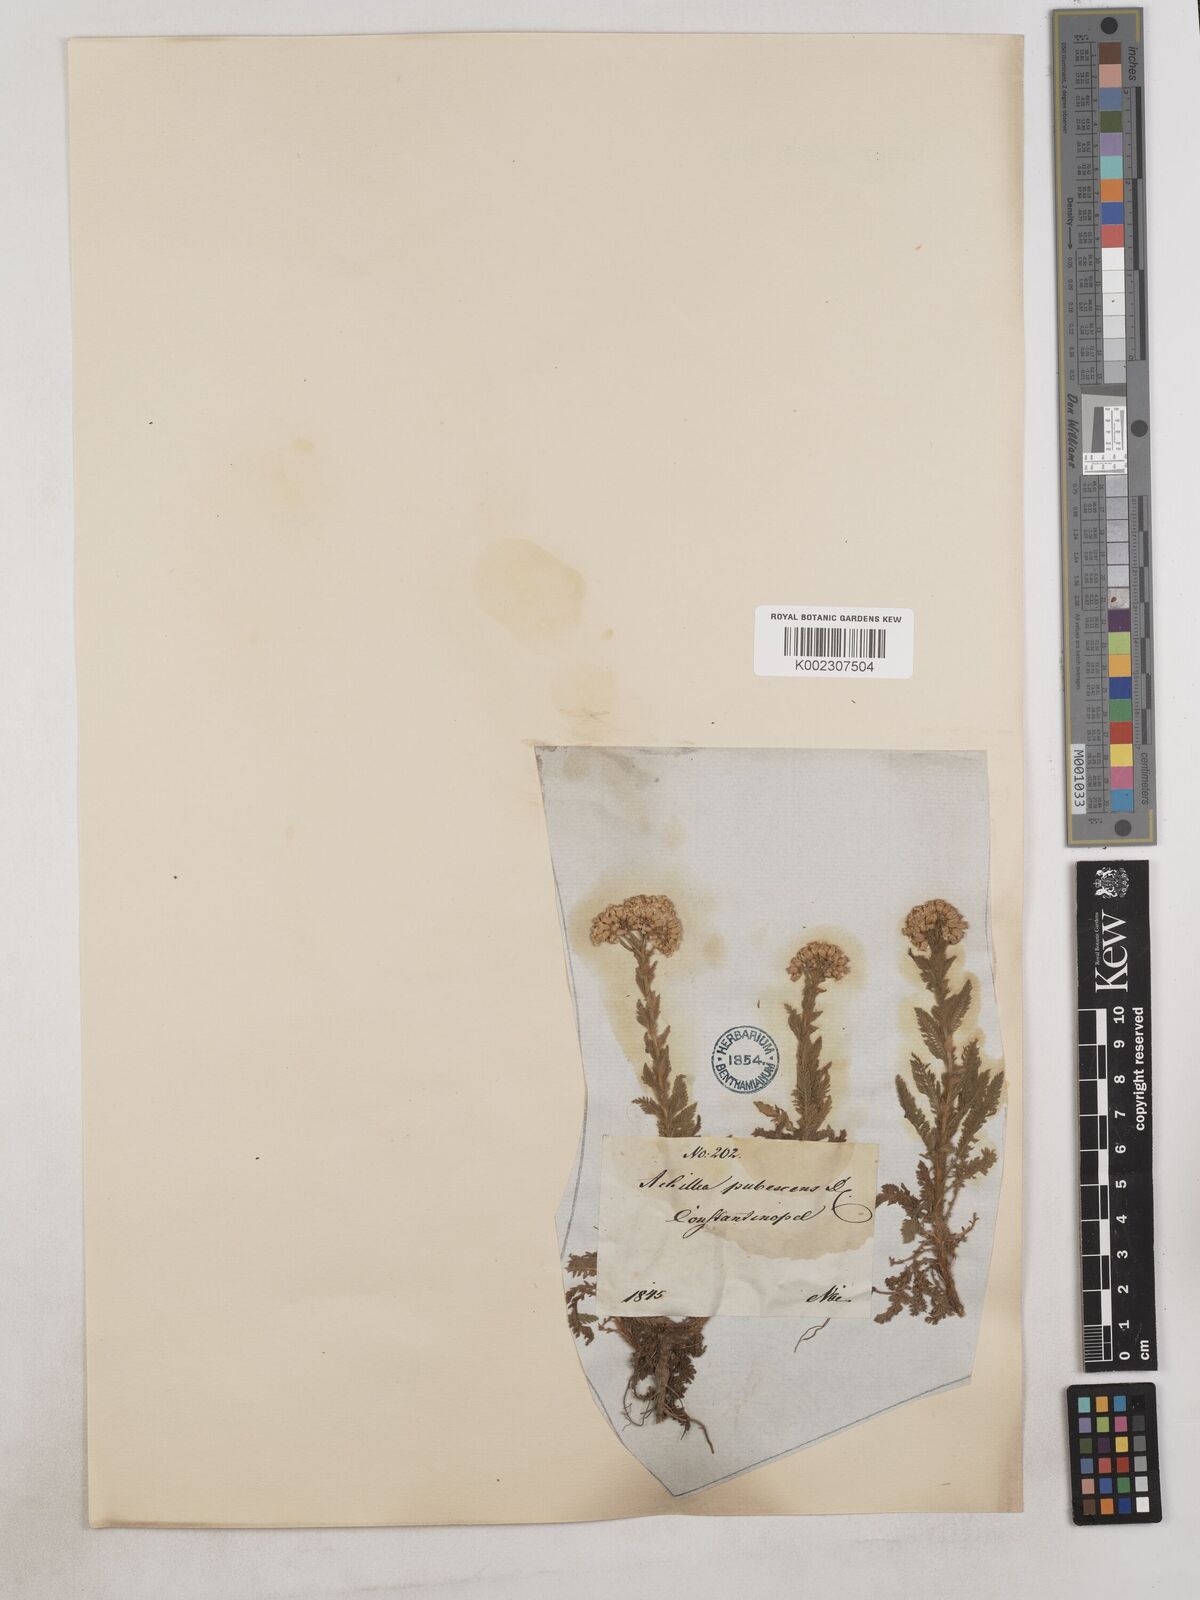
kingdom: Plantae
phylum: Tracheophyta
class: Magnoliopsida
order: Asterales
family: Asteraceae
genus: Achillea
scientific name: Achillea arabica
